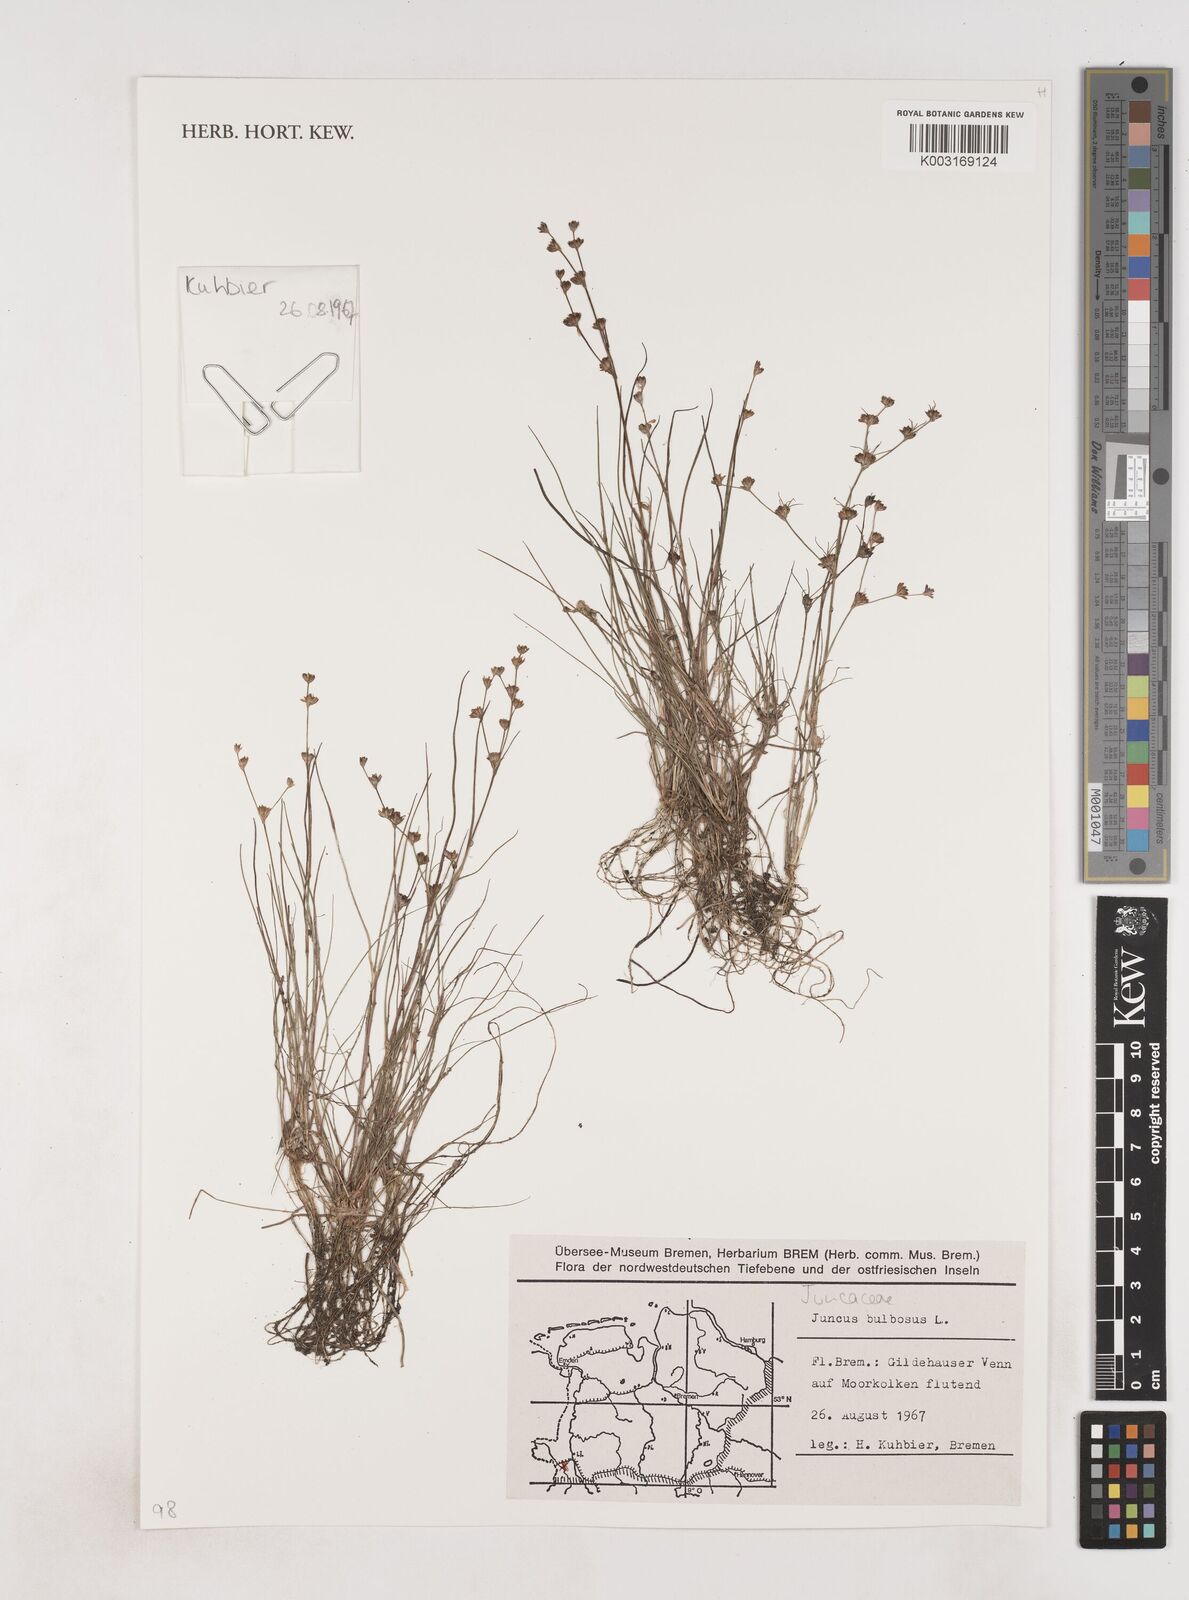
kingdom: Plantae
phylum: Tracheophyta
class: Liliopsida
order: Poales
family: Juncaceae
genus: Juncus
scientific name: Juncus bulbosus
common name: Bulbous rush
